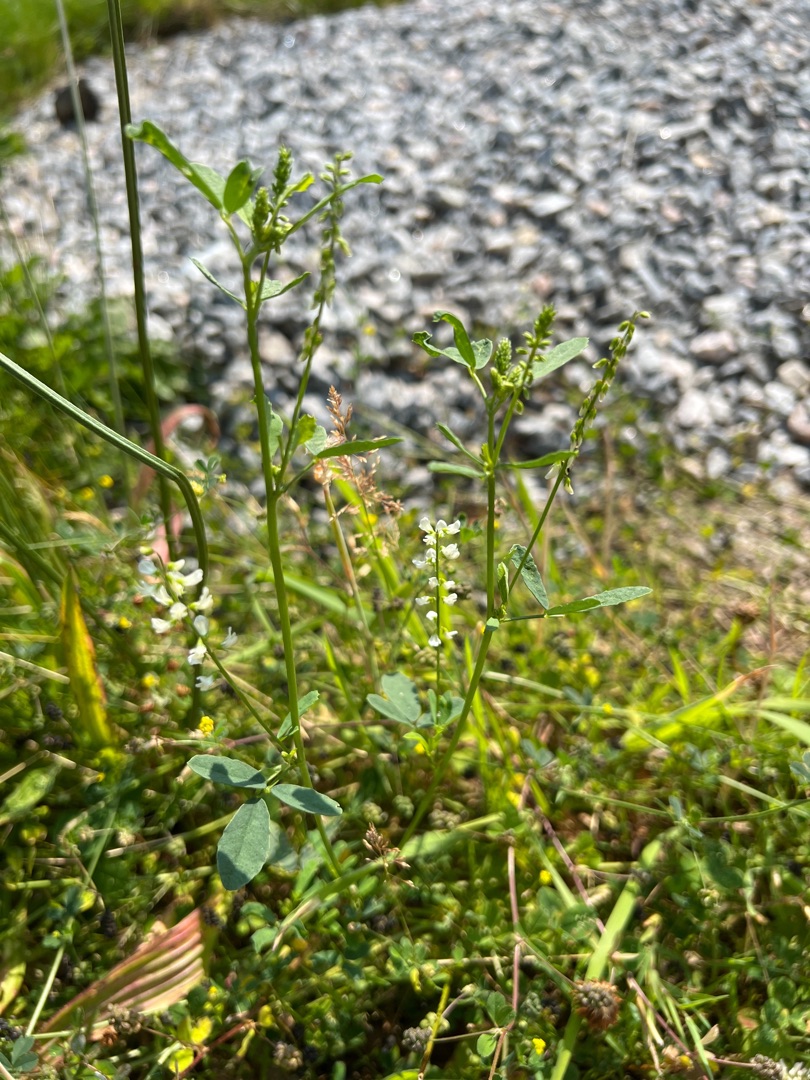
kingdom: Plantae
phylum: Tracheophyta
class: Magnoliopsida
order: Fabales
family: Fabaceae
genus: Melilotus
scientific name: Melilotus albus
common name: Hvid stenkløver
